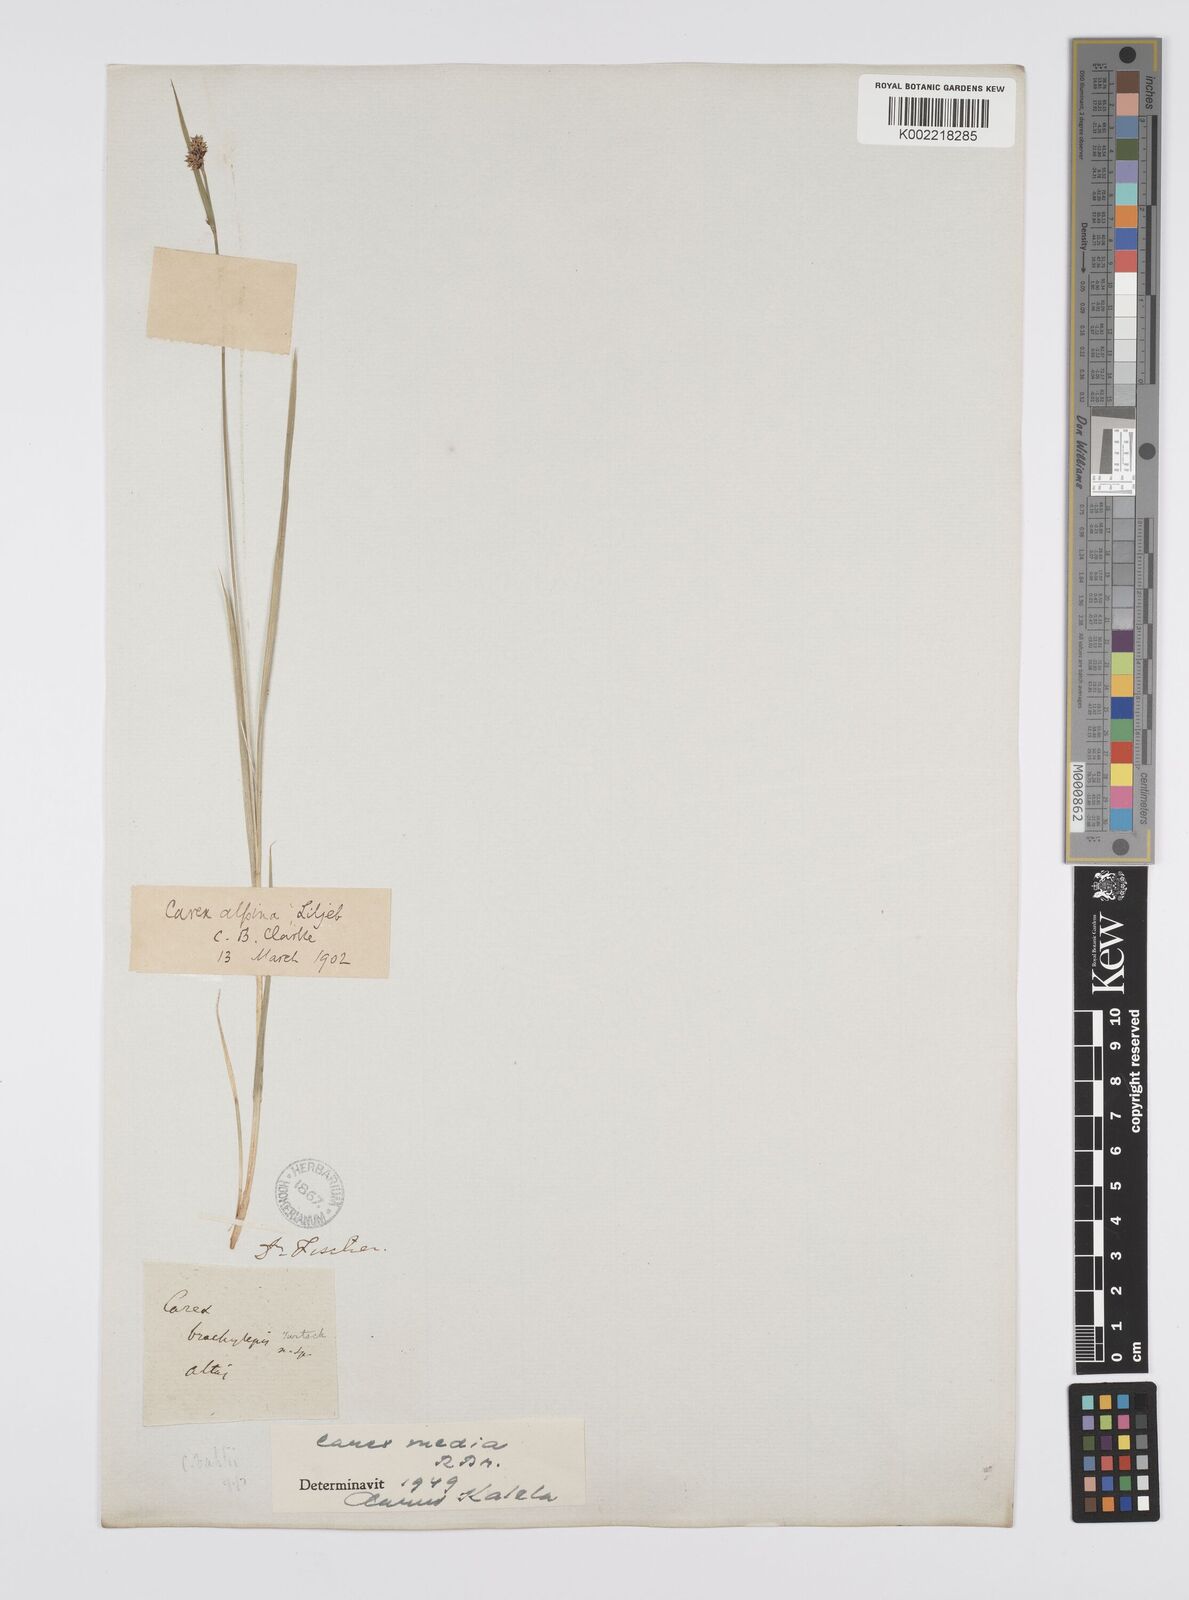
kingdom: Plantae
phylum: Tracheophyta
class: Liliopsida
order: Poales
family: Cyperaceae
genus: Carex
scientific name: Carex norvegica
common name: Close-headed alpine-sedge
